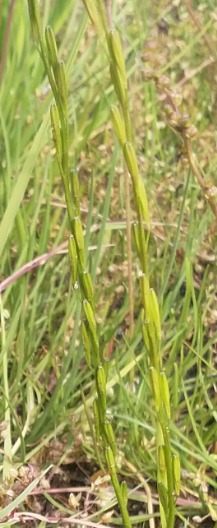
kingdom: Plantae
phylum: Tracheophyta
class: Liliopsida
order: Alismatales
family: Juncaginaceae
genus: Triglochin
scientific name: Triglochin palustris
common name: Kær-trehage
